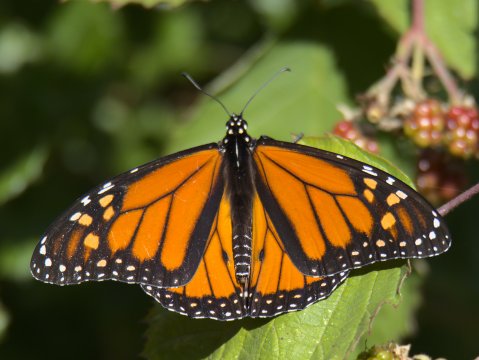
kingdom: Animalia
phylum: Arthropoda
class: Insecta
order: Lepidoptera
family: Nymphalidae
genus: Danaus
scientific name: Danaus plexippus
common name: Monarch
